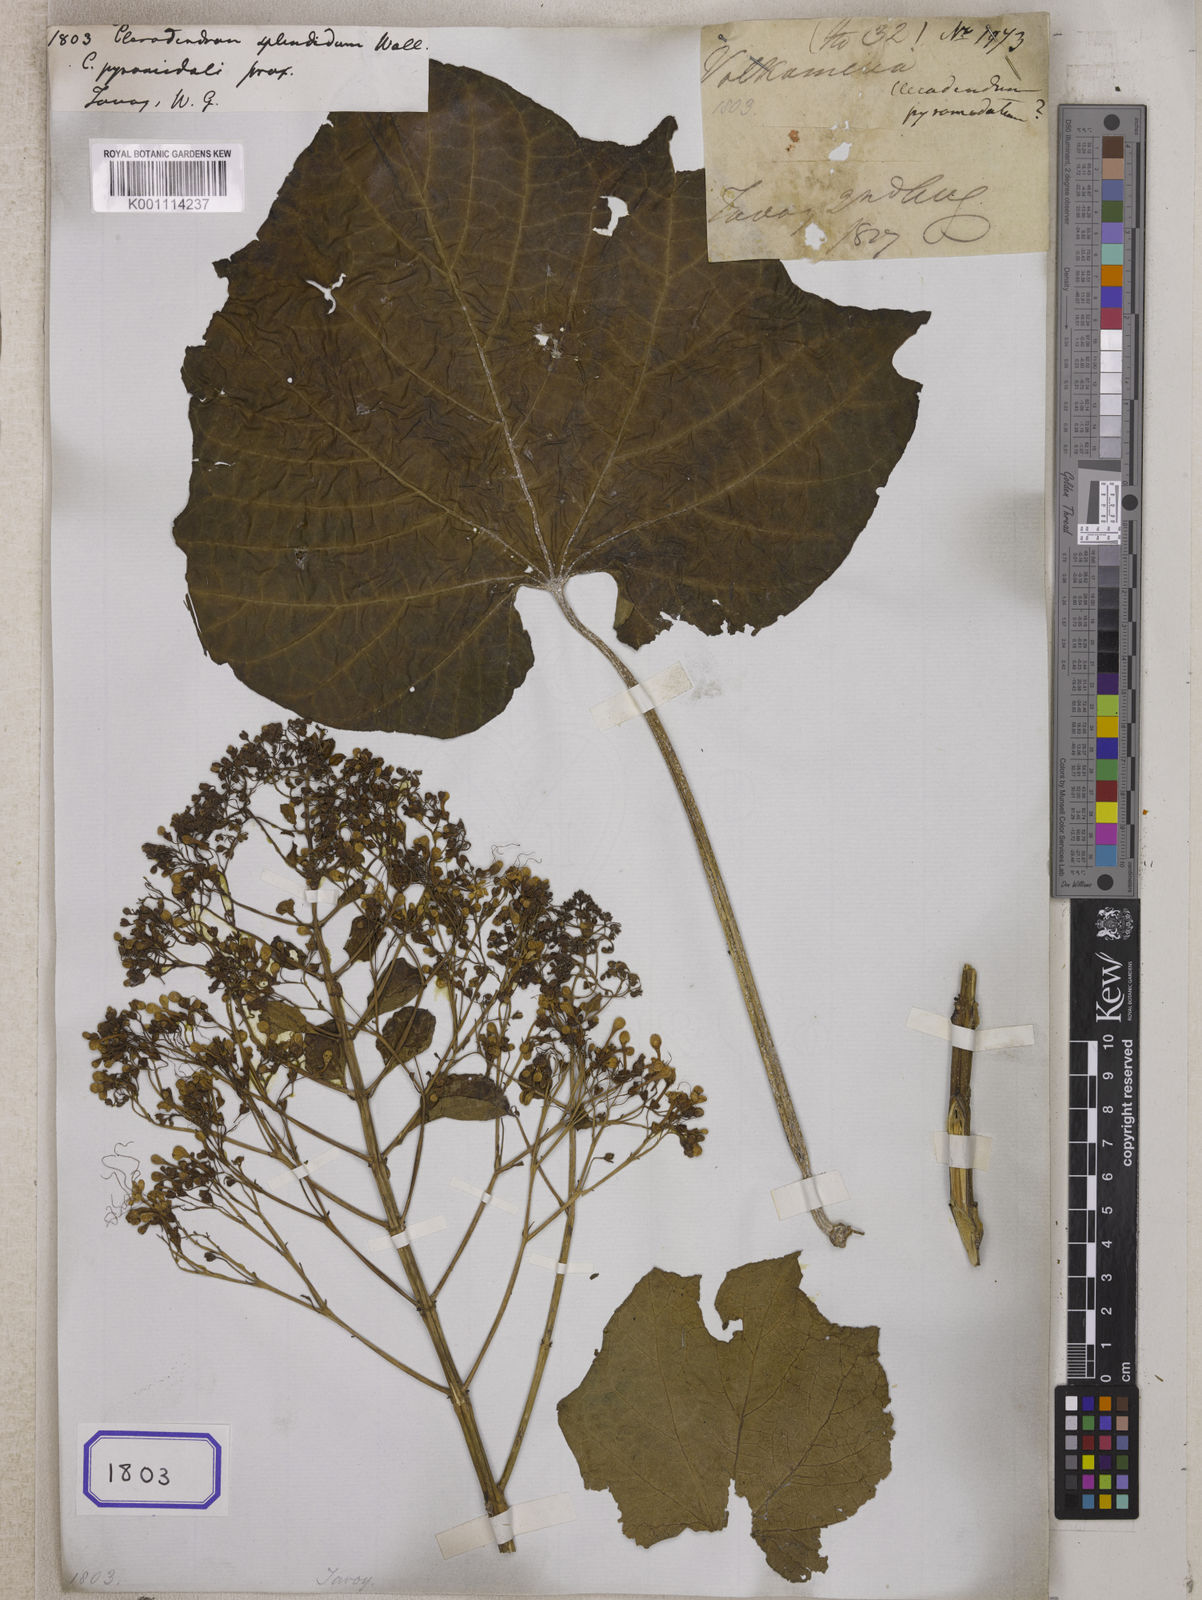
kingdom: Plantae
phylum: Tracheophyta
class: Magnoliopsida
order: Lamiales
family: Lamiaceae
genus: Clerodendrum
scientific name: Clerodendrum
